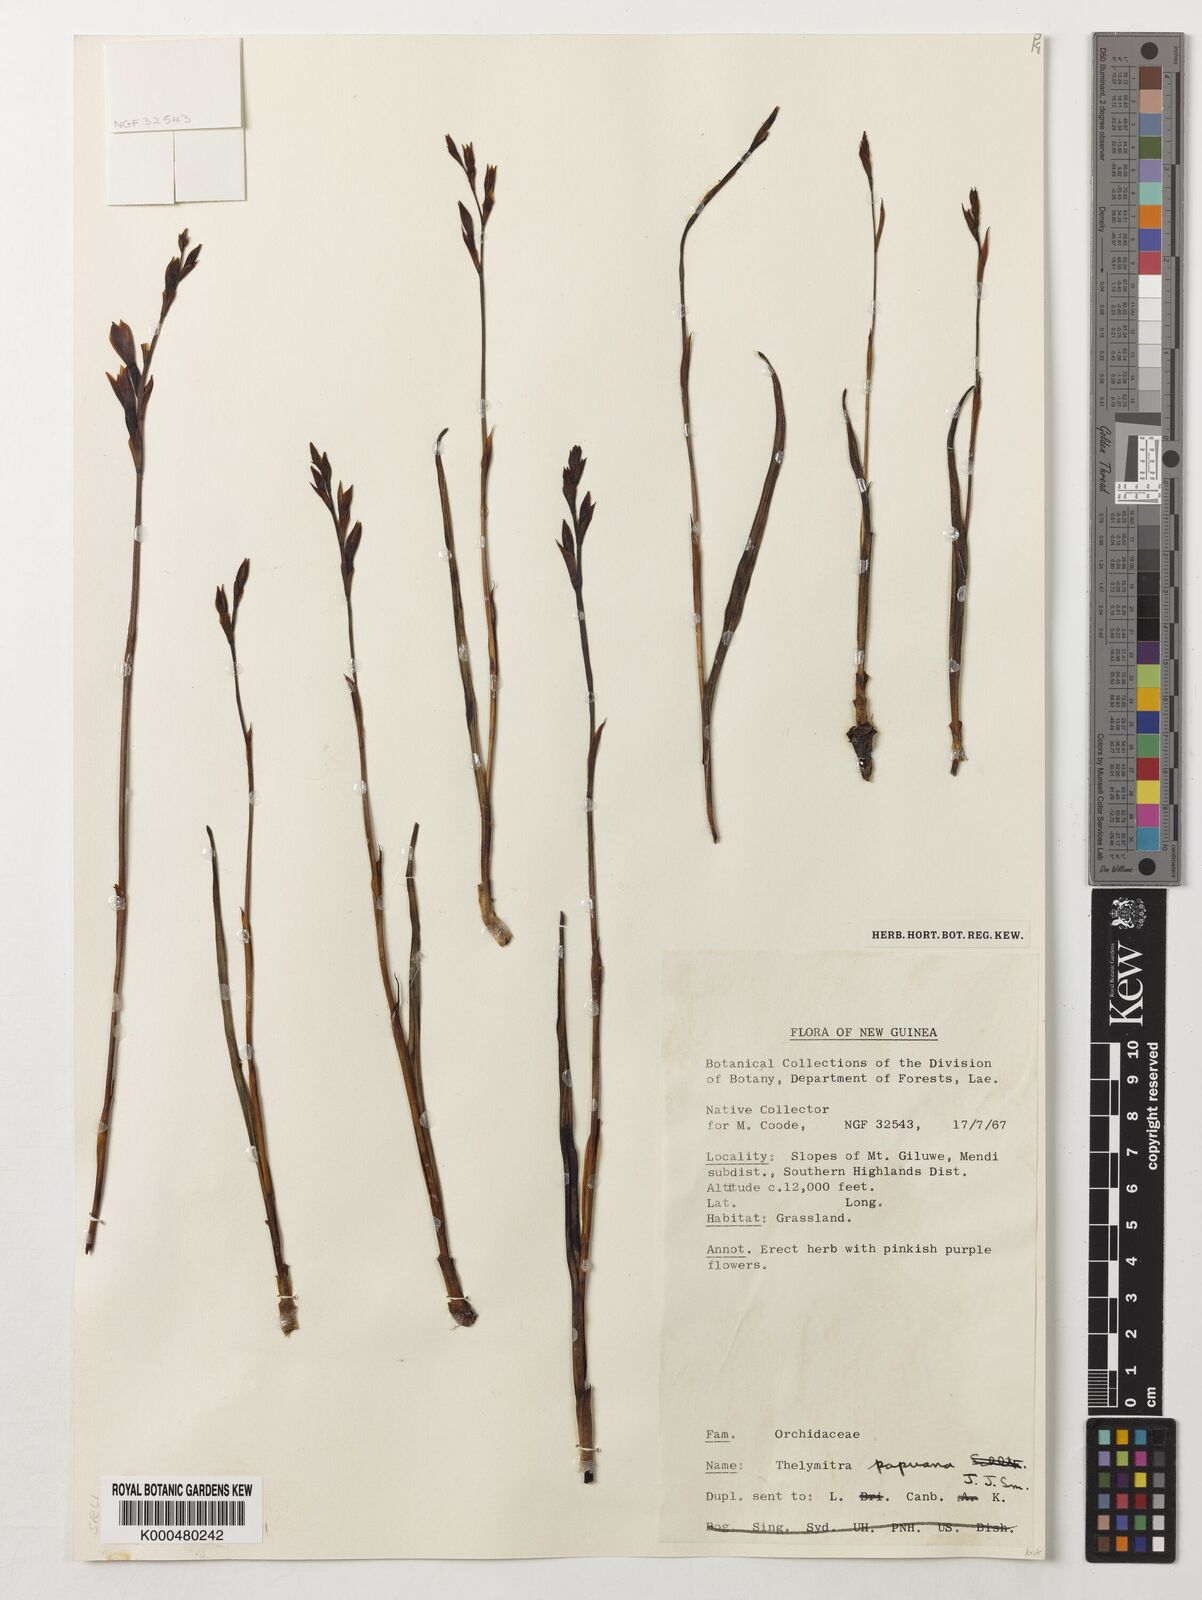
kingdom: Plantae
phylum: Tracheophyta
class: Liliopsida
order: Asparagales
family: Orchidaceae
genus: Thelymitra
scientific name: Thelymitra papuana
